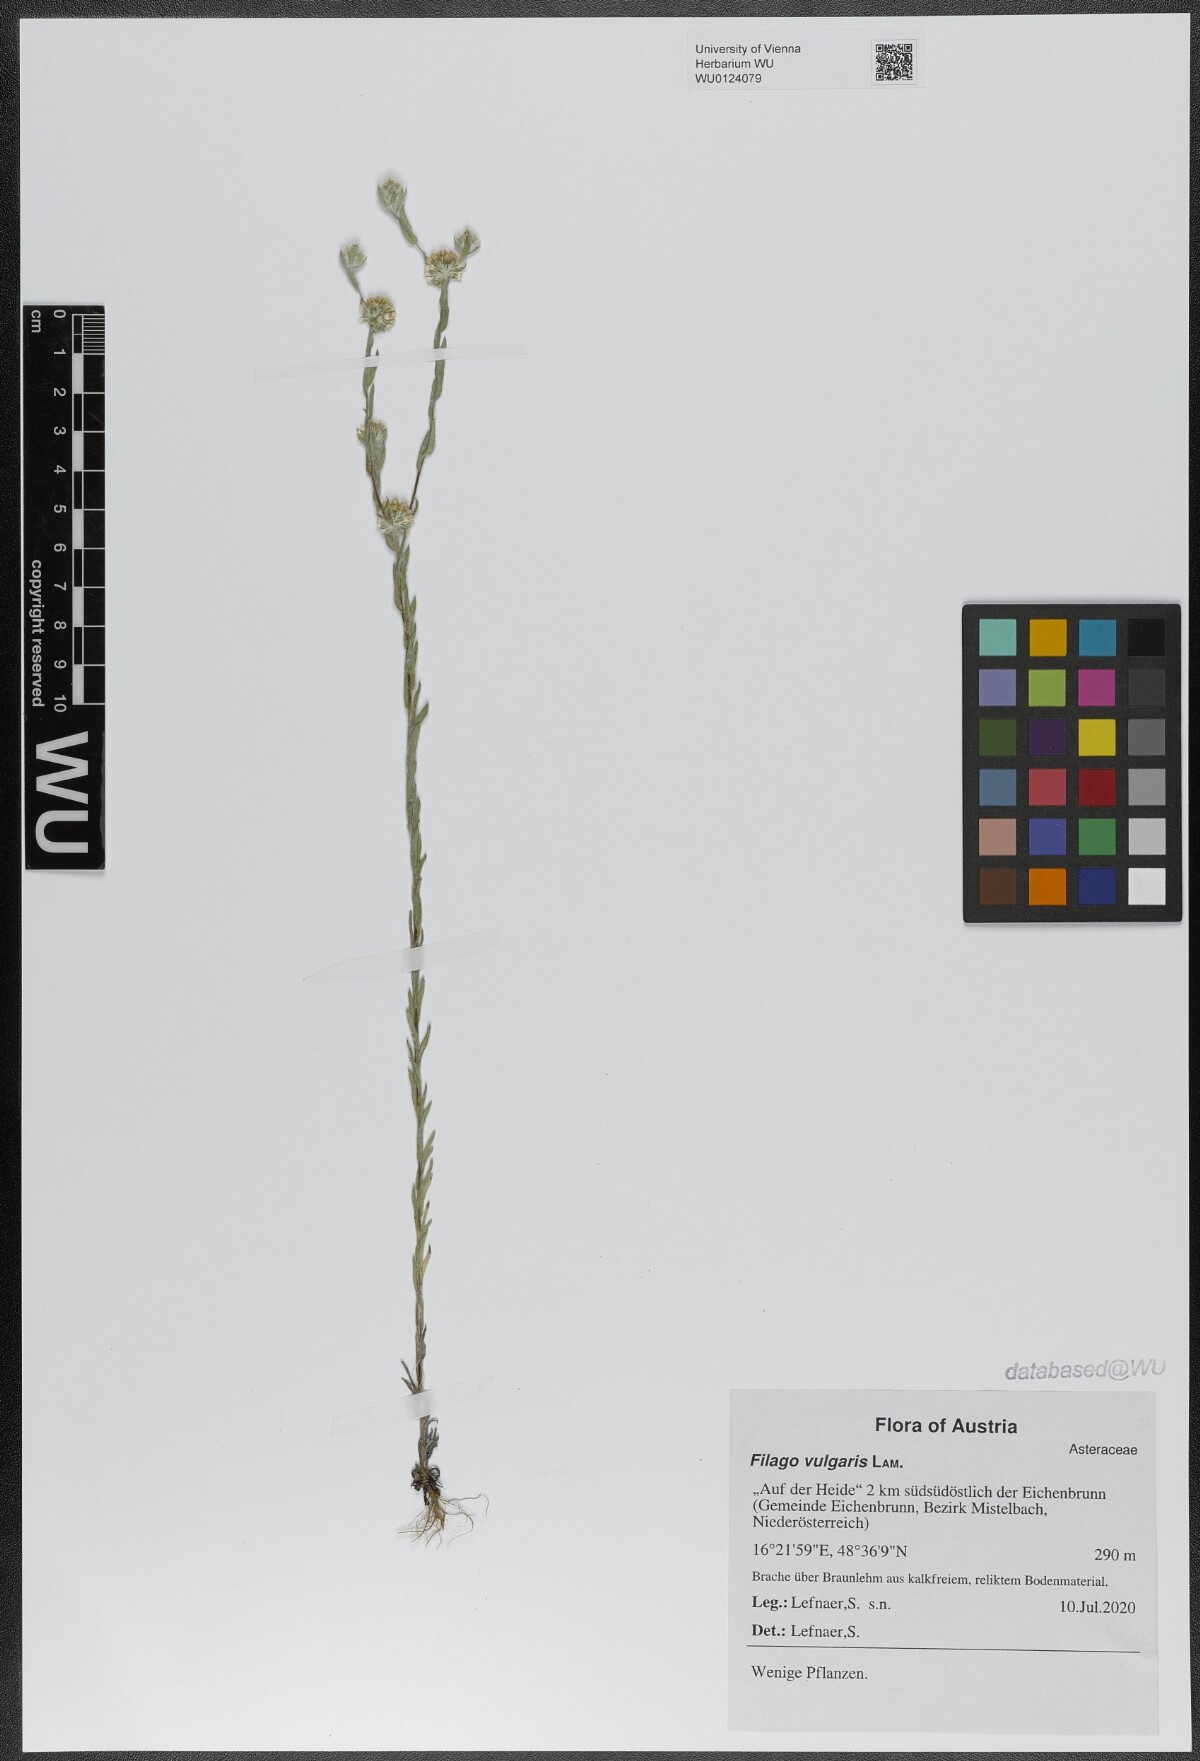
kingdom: Plantae
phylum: Tracheophyta
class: Magnoliopsida
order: Asterales
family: Asteraceae
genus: Filago
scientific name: Filago germanica
